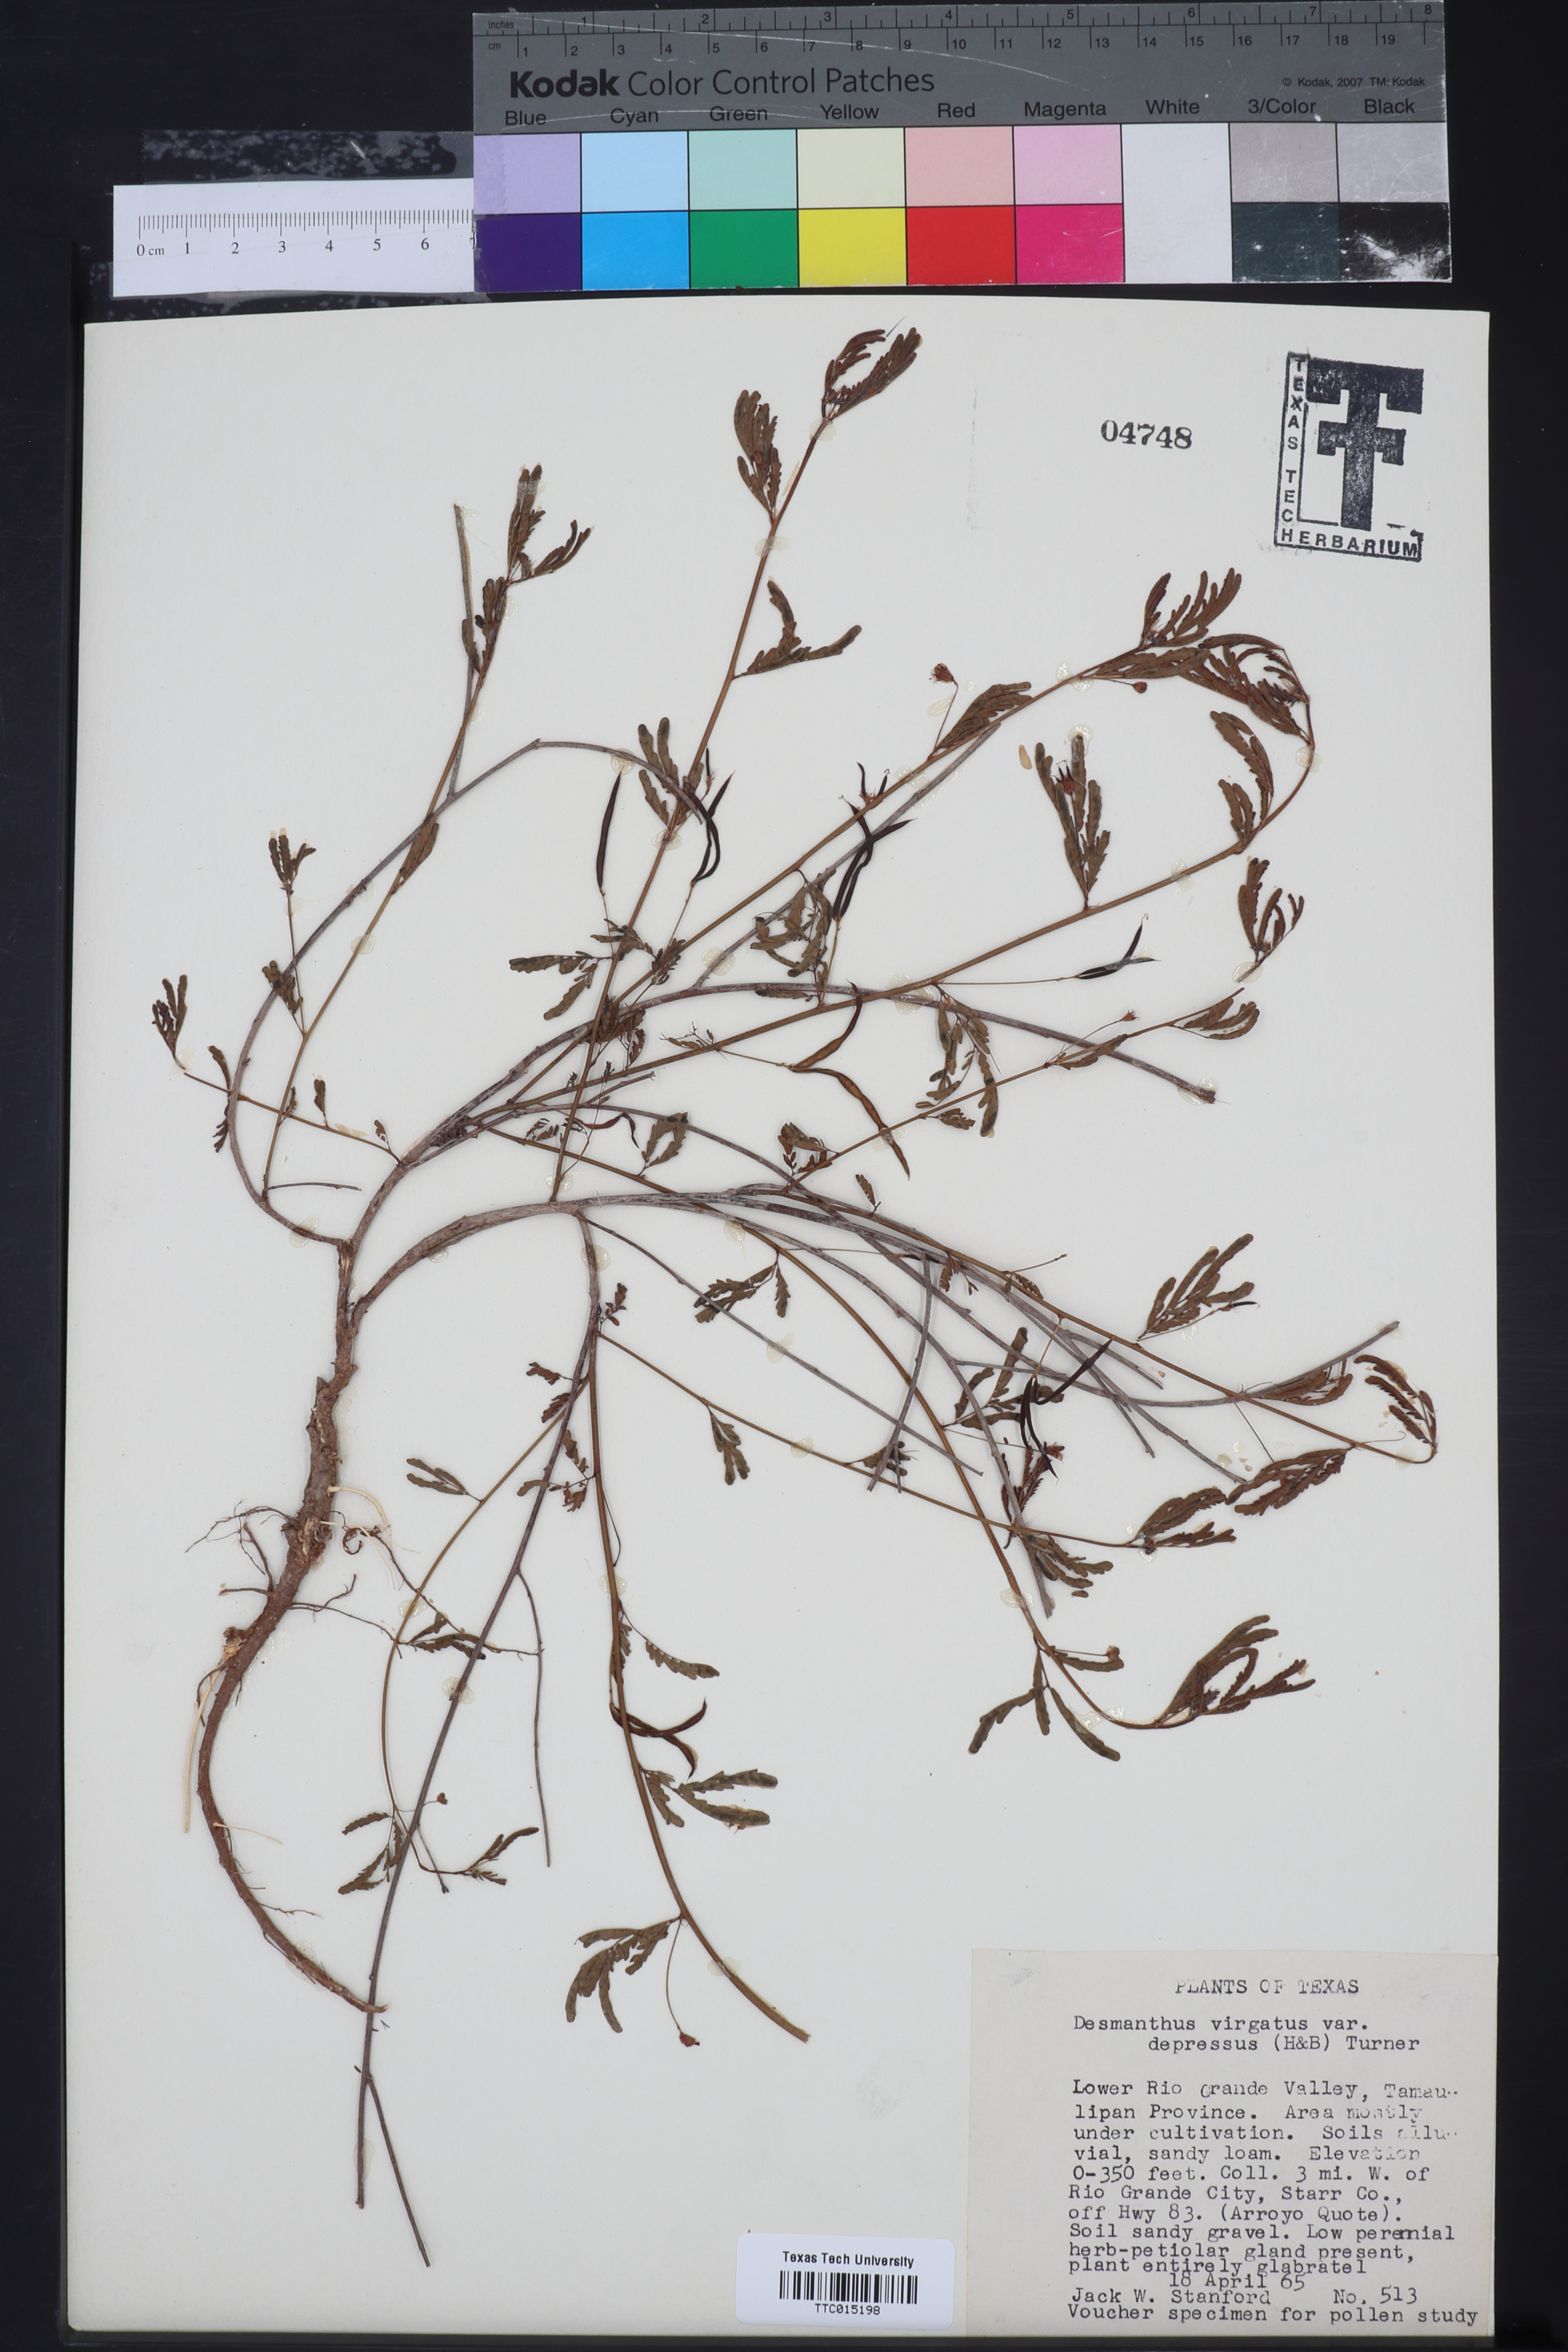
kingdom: Plantae
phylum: Tracheophyta
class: Magnoliopsida
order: Fabales
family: Fabaceae
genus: Desmanthus
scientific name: Desmanthus virgatus
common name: Wild tantan
